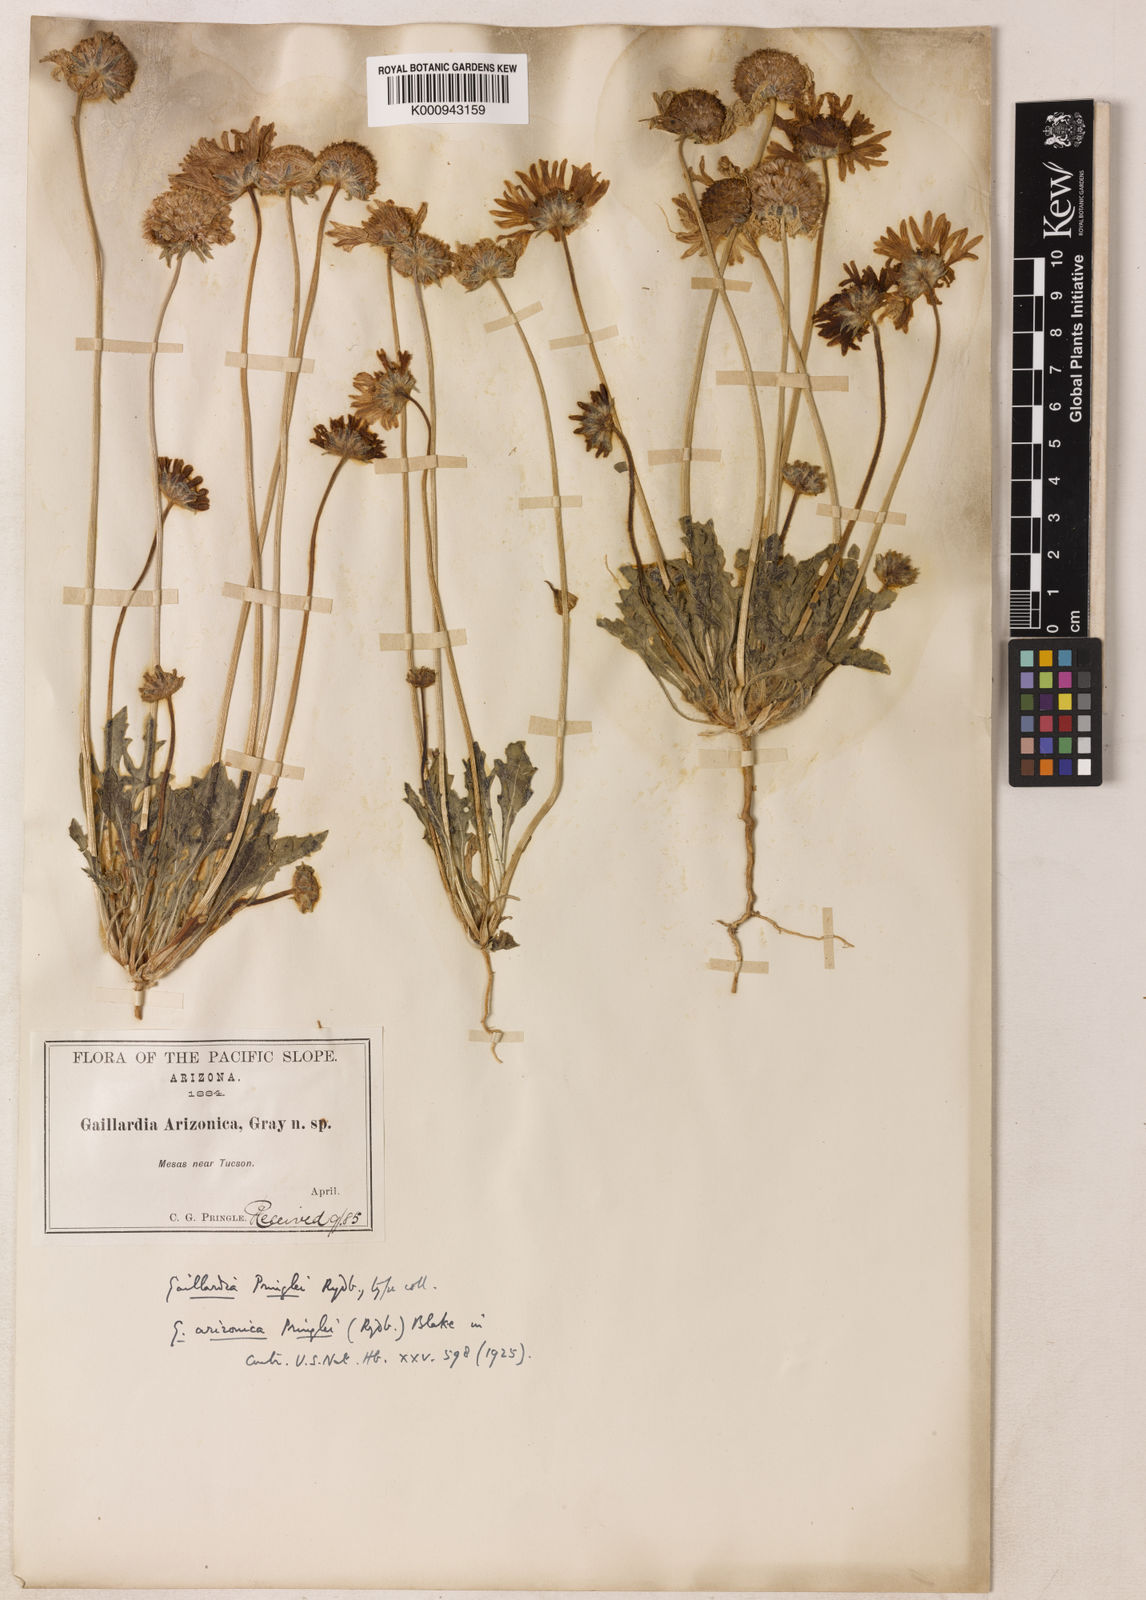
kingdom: Plantae
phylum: Tracheophyta
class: Magnoliopsida
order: Asterales
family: Asteraceae
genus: Gaillardia
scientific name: Gaillardia arizonica
